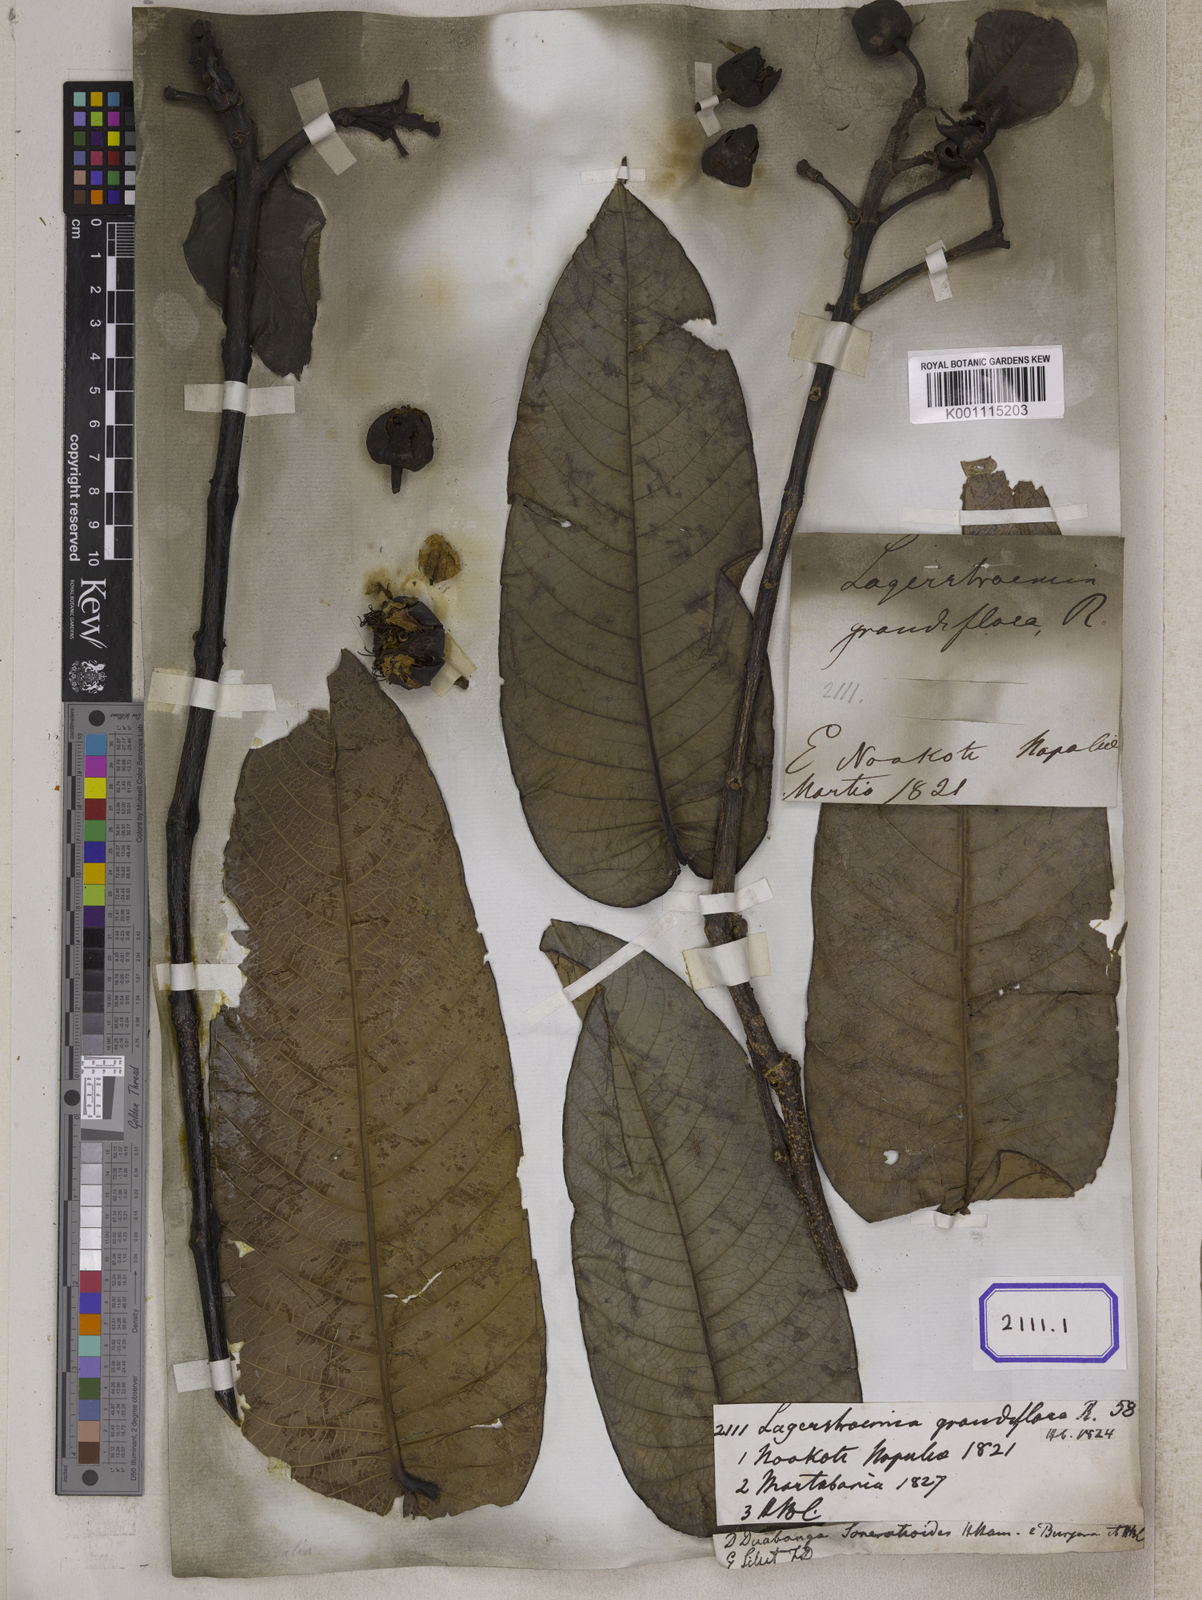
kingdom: Plantae
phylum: Tracheophyta
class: Magnoliopsida
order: Myrtales
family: Lythraceae
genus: Lagerstroemia
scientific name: Lagerstroemia
